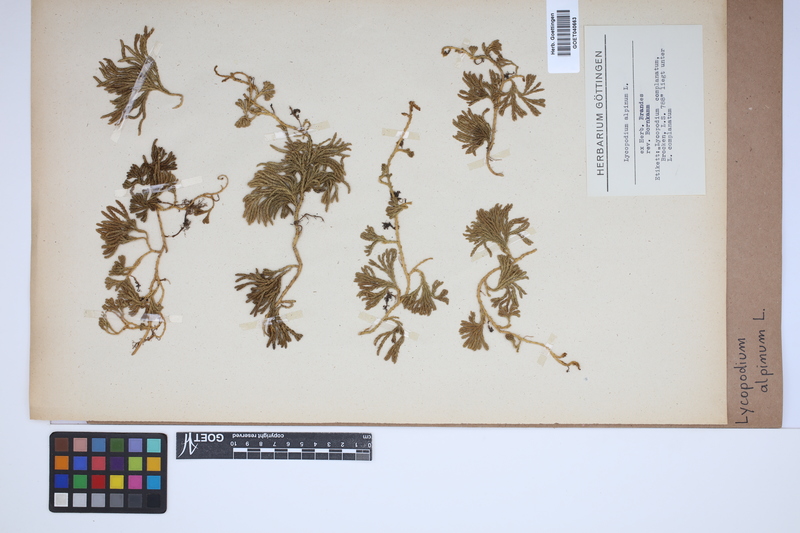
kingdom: Plantae
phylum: Tracheophyta
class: Lycopodiopsida
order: Lycopodiales
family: Lycopodiaceae
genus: Diphasiastrum
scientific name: Diphasiastrum alpinum
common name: Alpine clubmoss
